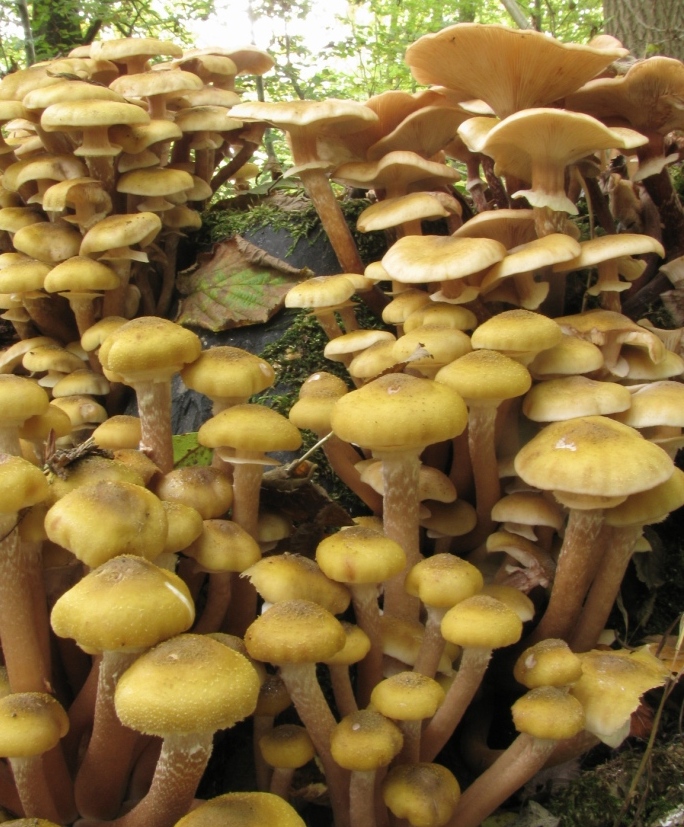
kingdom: Fungi
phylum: Basidiomycota
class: Agaricomycetes
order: Agaricales
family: Physalacriaceae
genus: Armillaria
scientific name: Armillaria mellea
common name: ægte honningsvamp
